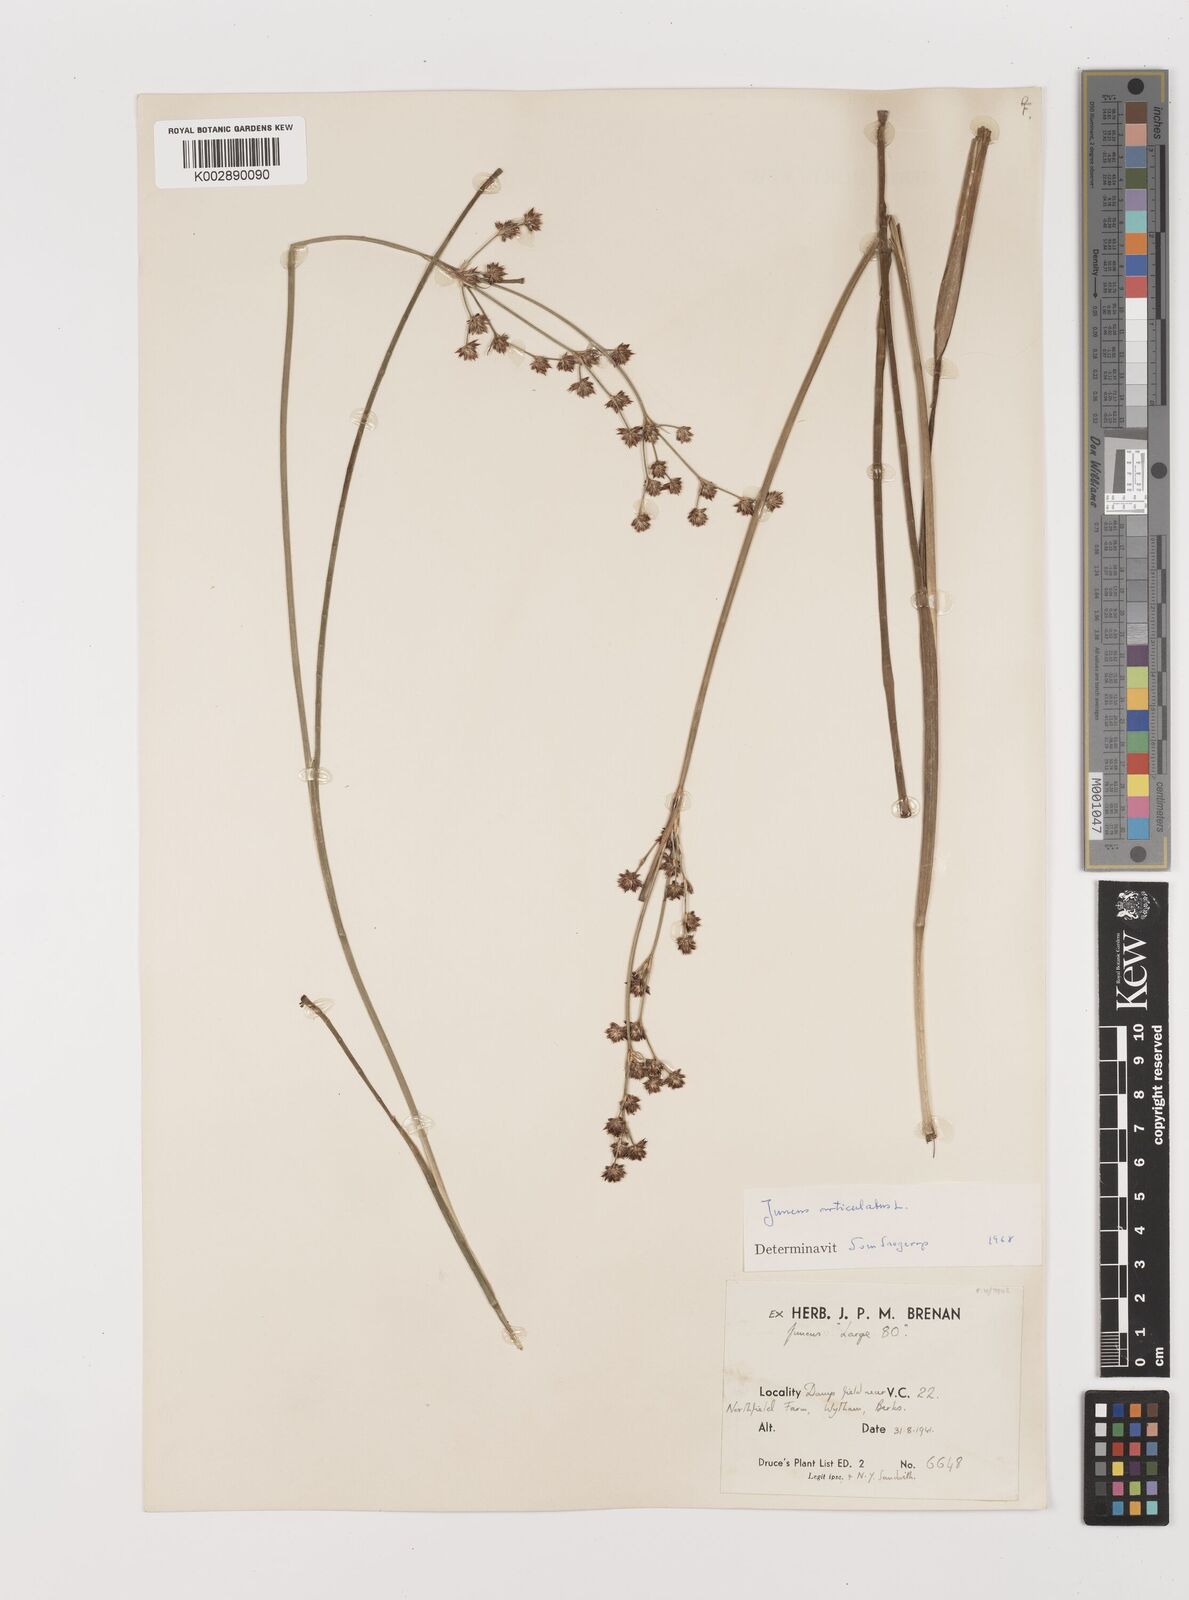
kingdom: Plantae
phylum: Tracheophyta
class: Liliopsida
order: Poales
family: Juncaceae
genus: Juncus
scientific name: Juncus articulatus
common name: Jointed rush
